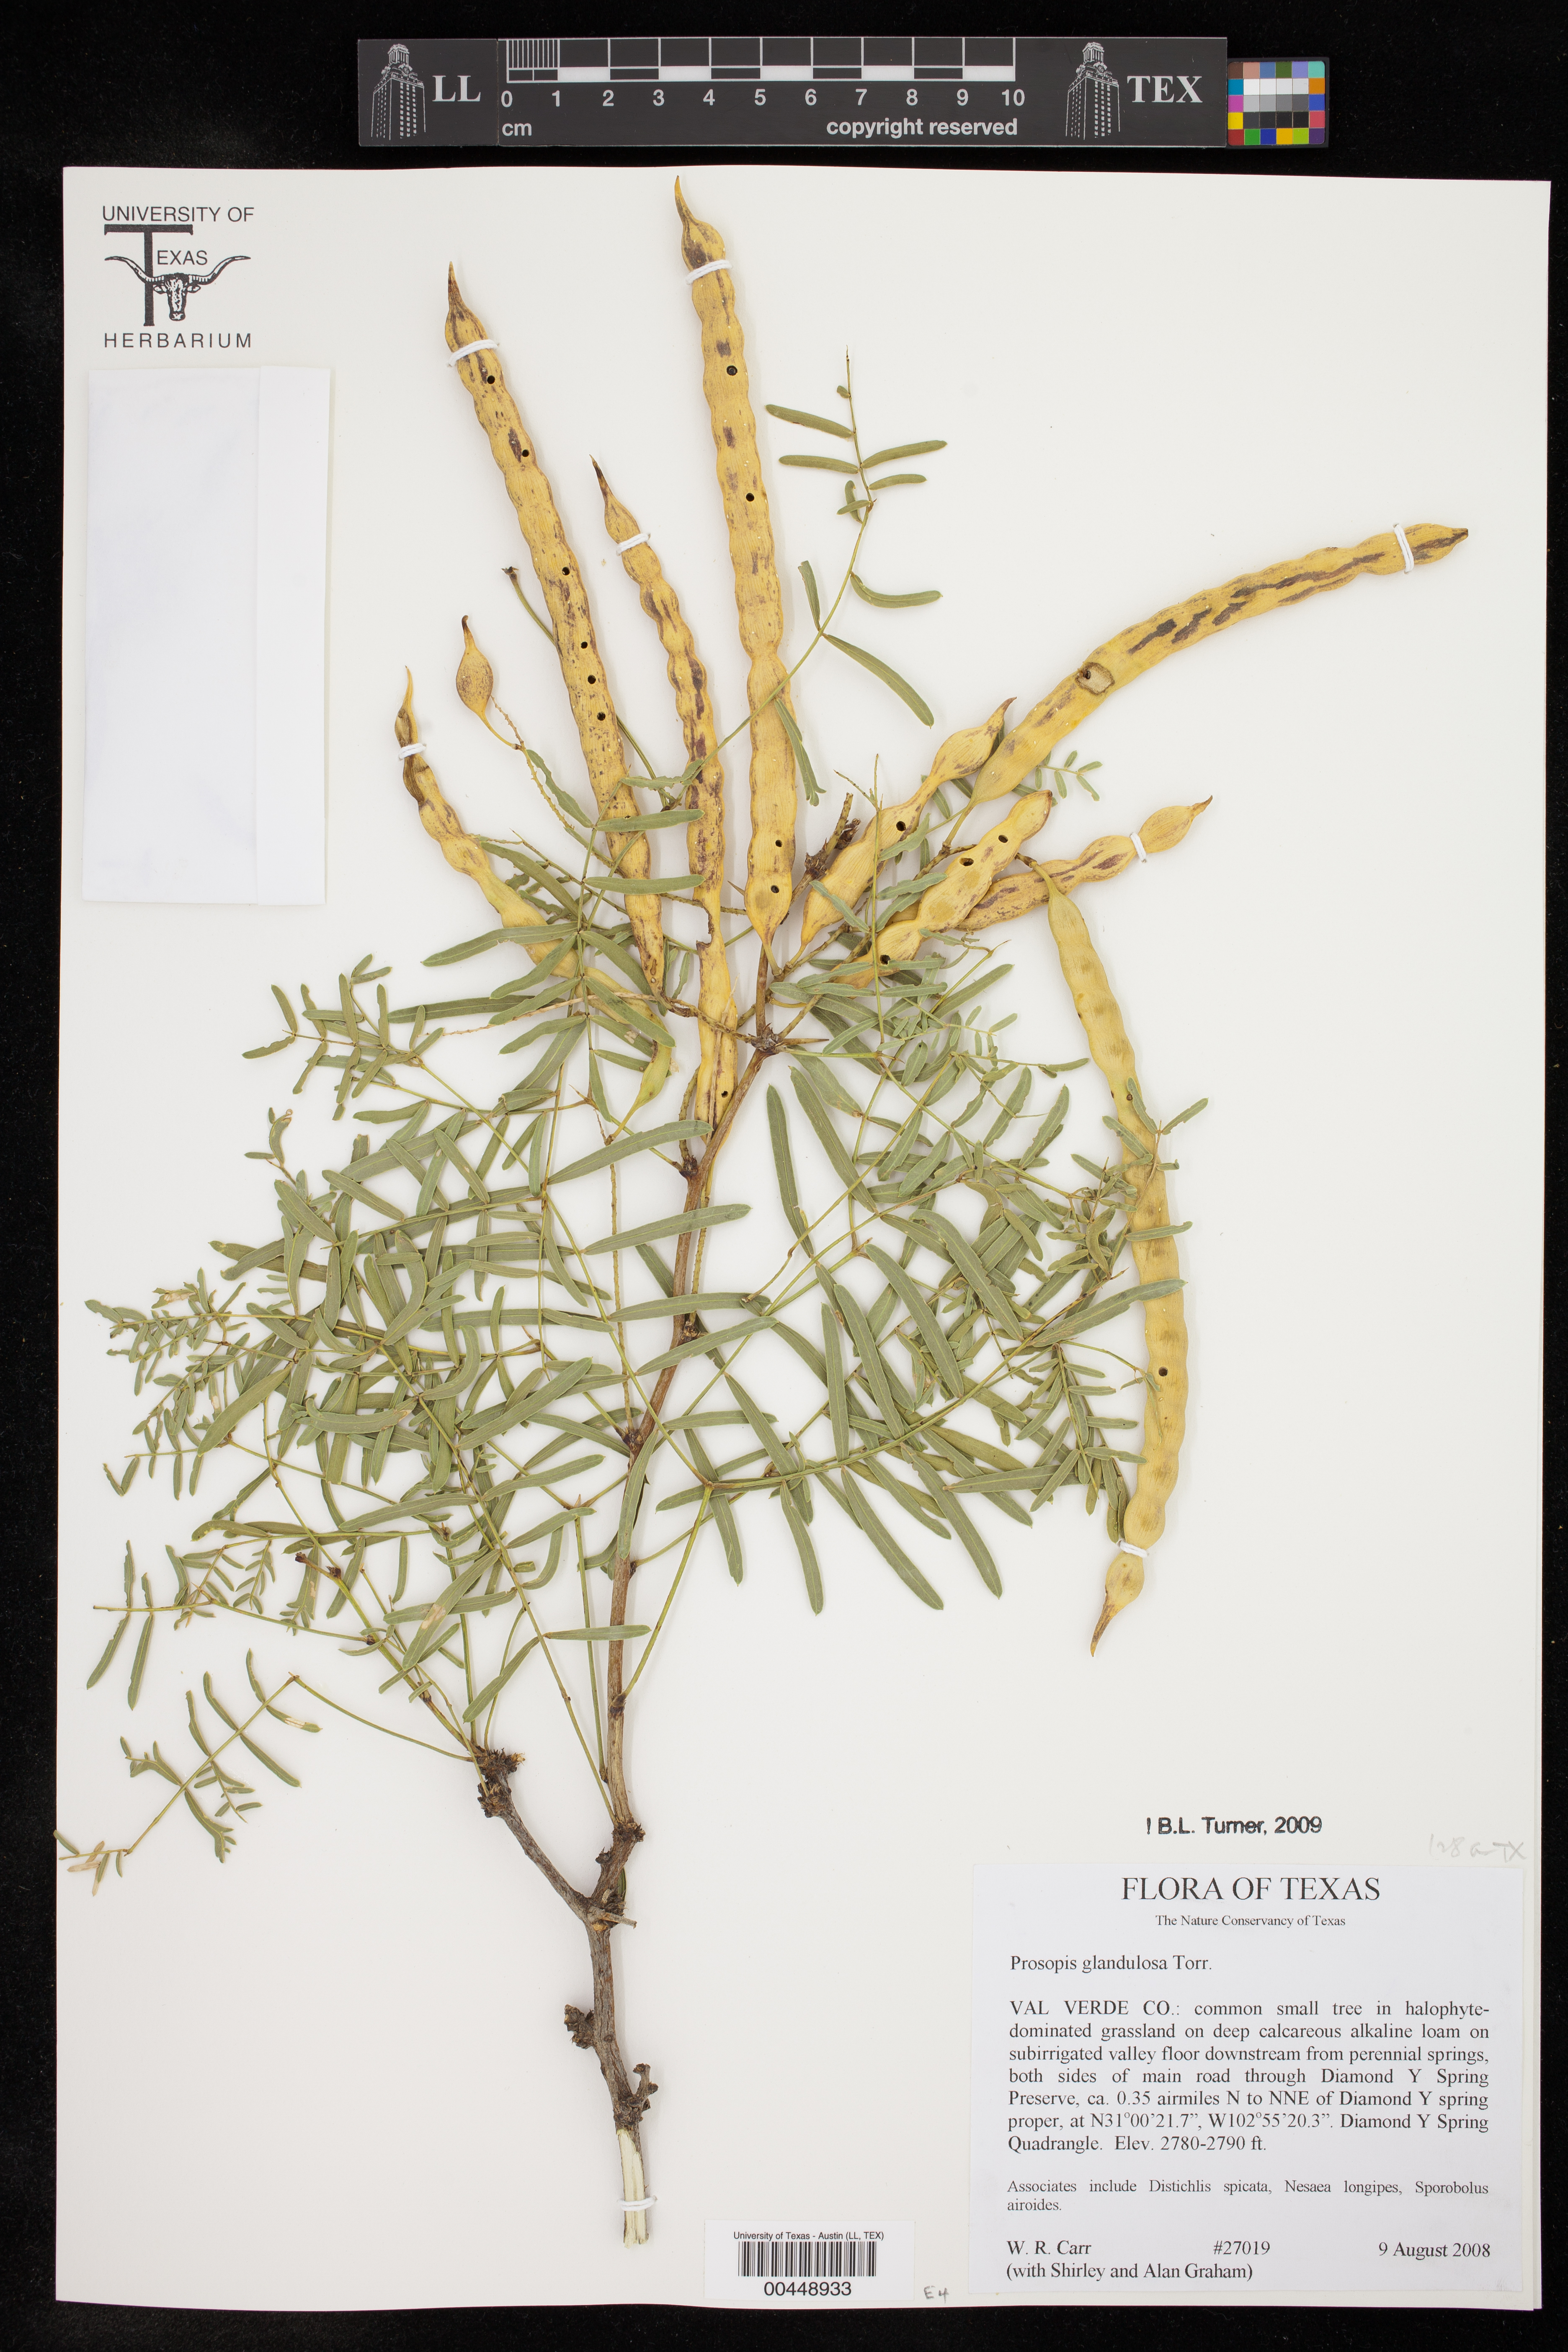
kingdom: Plantae
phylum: Tracheophyta
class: Magnoliopsida
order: Fabales
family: Fabaceae
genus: Prosopis
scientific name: Prosopis glandulosa
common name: Honey mesquite
